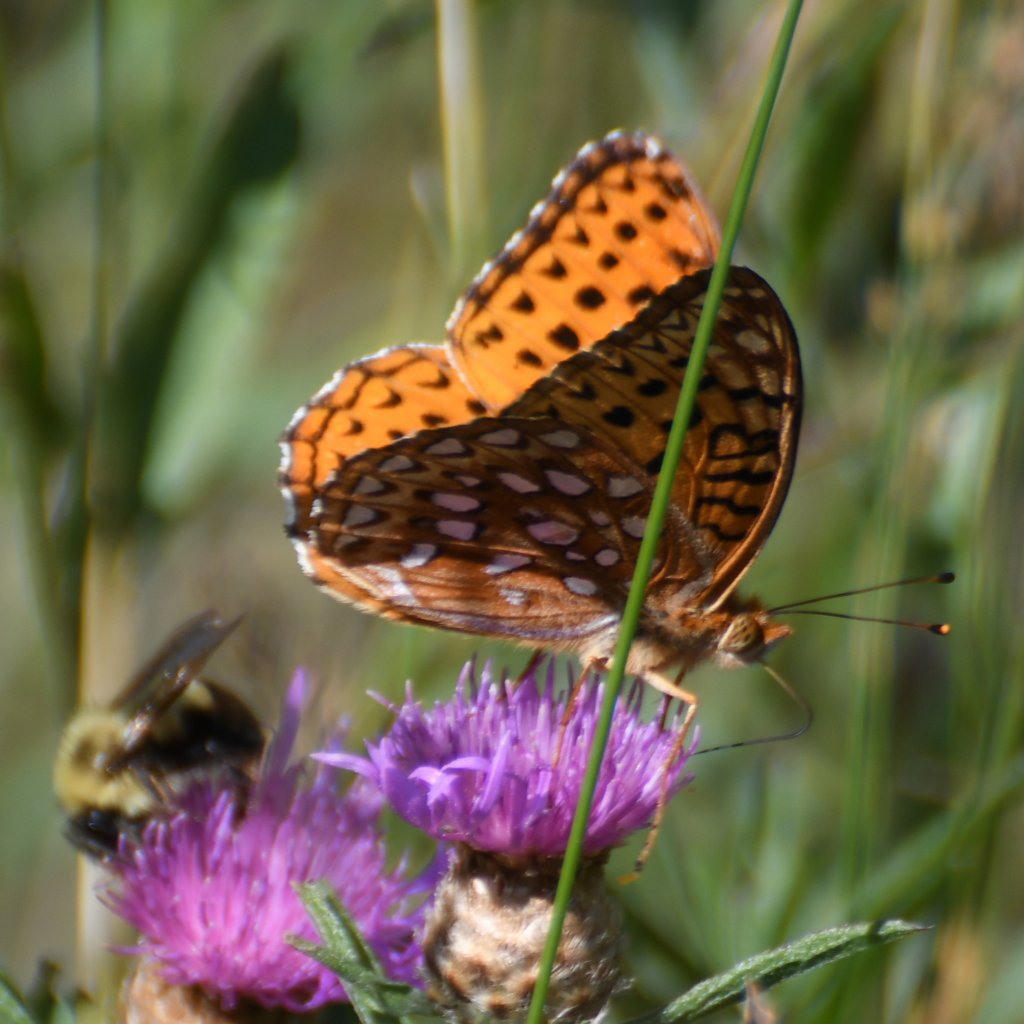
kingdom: Animalia
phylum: Arthropoda
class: Insecta
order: Lepidoptera
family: Nymphalidae
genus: Speyeria
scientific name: Speyeria aphrodite
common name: Aphrodite Fritillary
